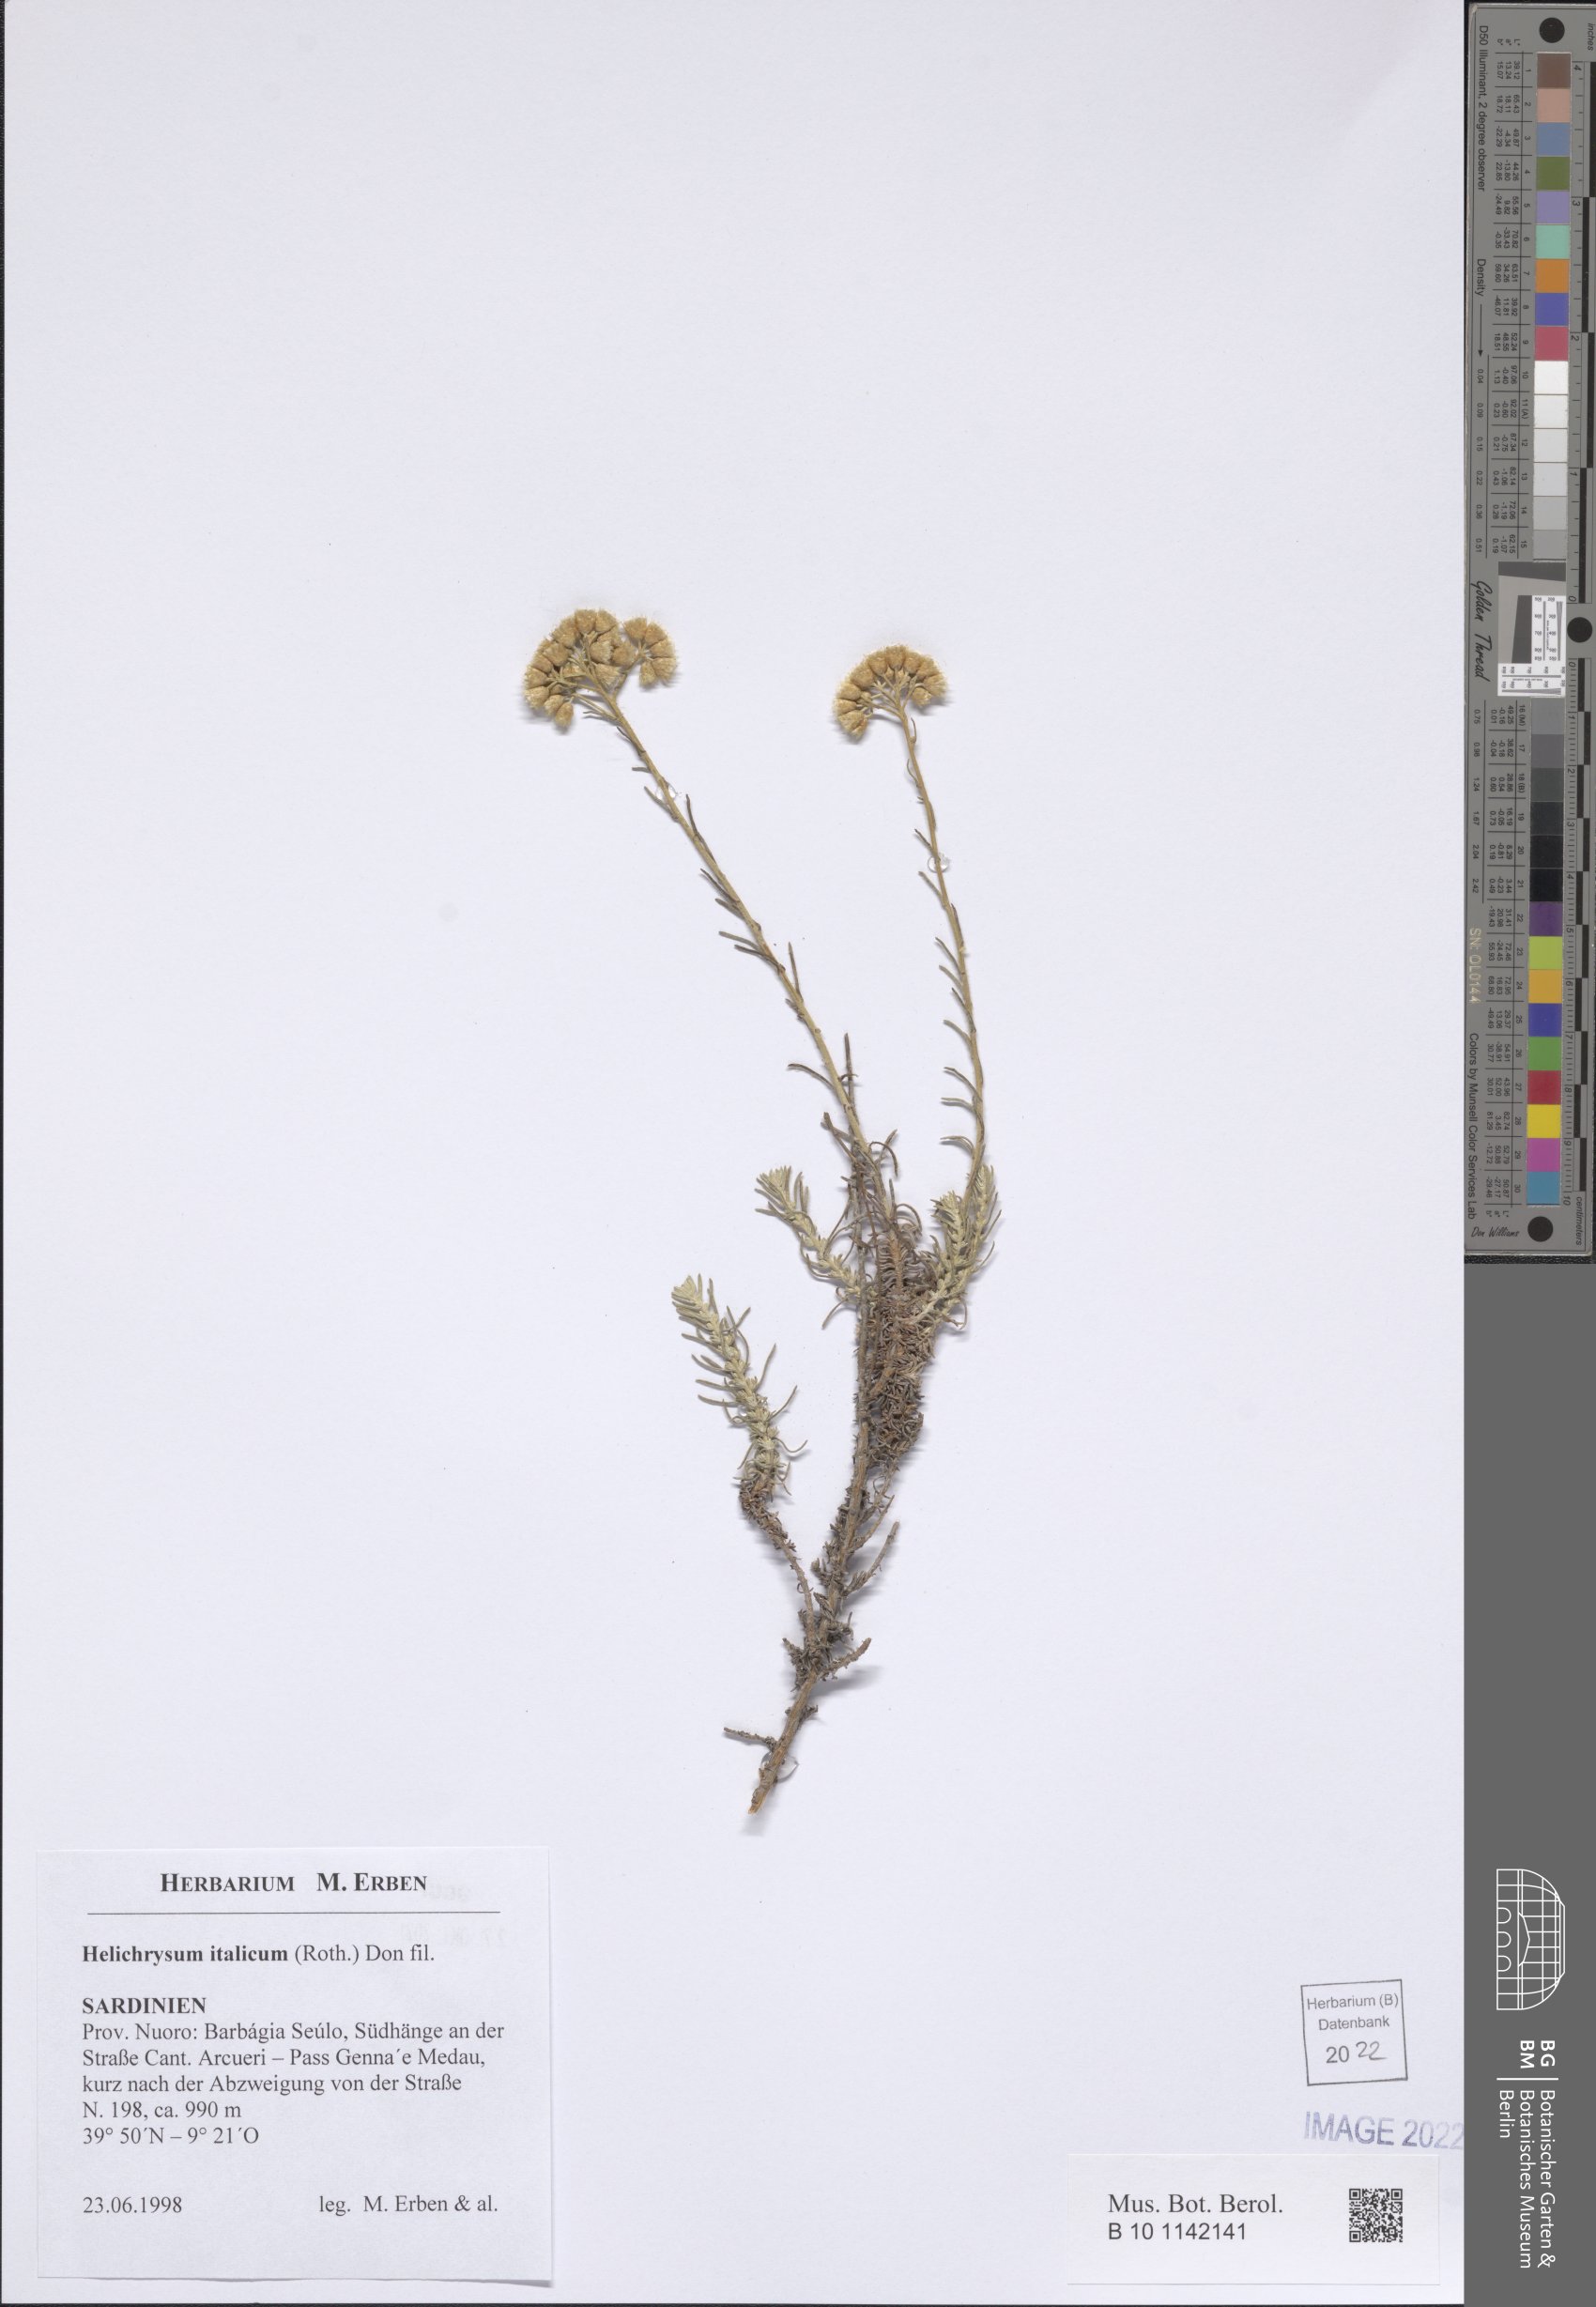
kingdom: Plantae
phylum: Tracheophyta
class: Magnoliopsida
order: Asterales
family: Asteraceae
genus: Helichrysum
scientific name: Helichrysum italicum
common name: Curryplant
